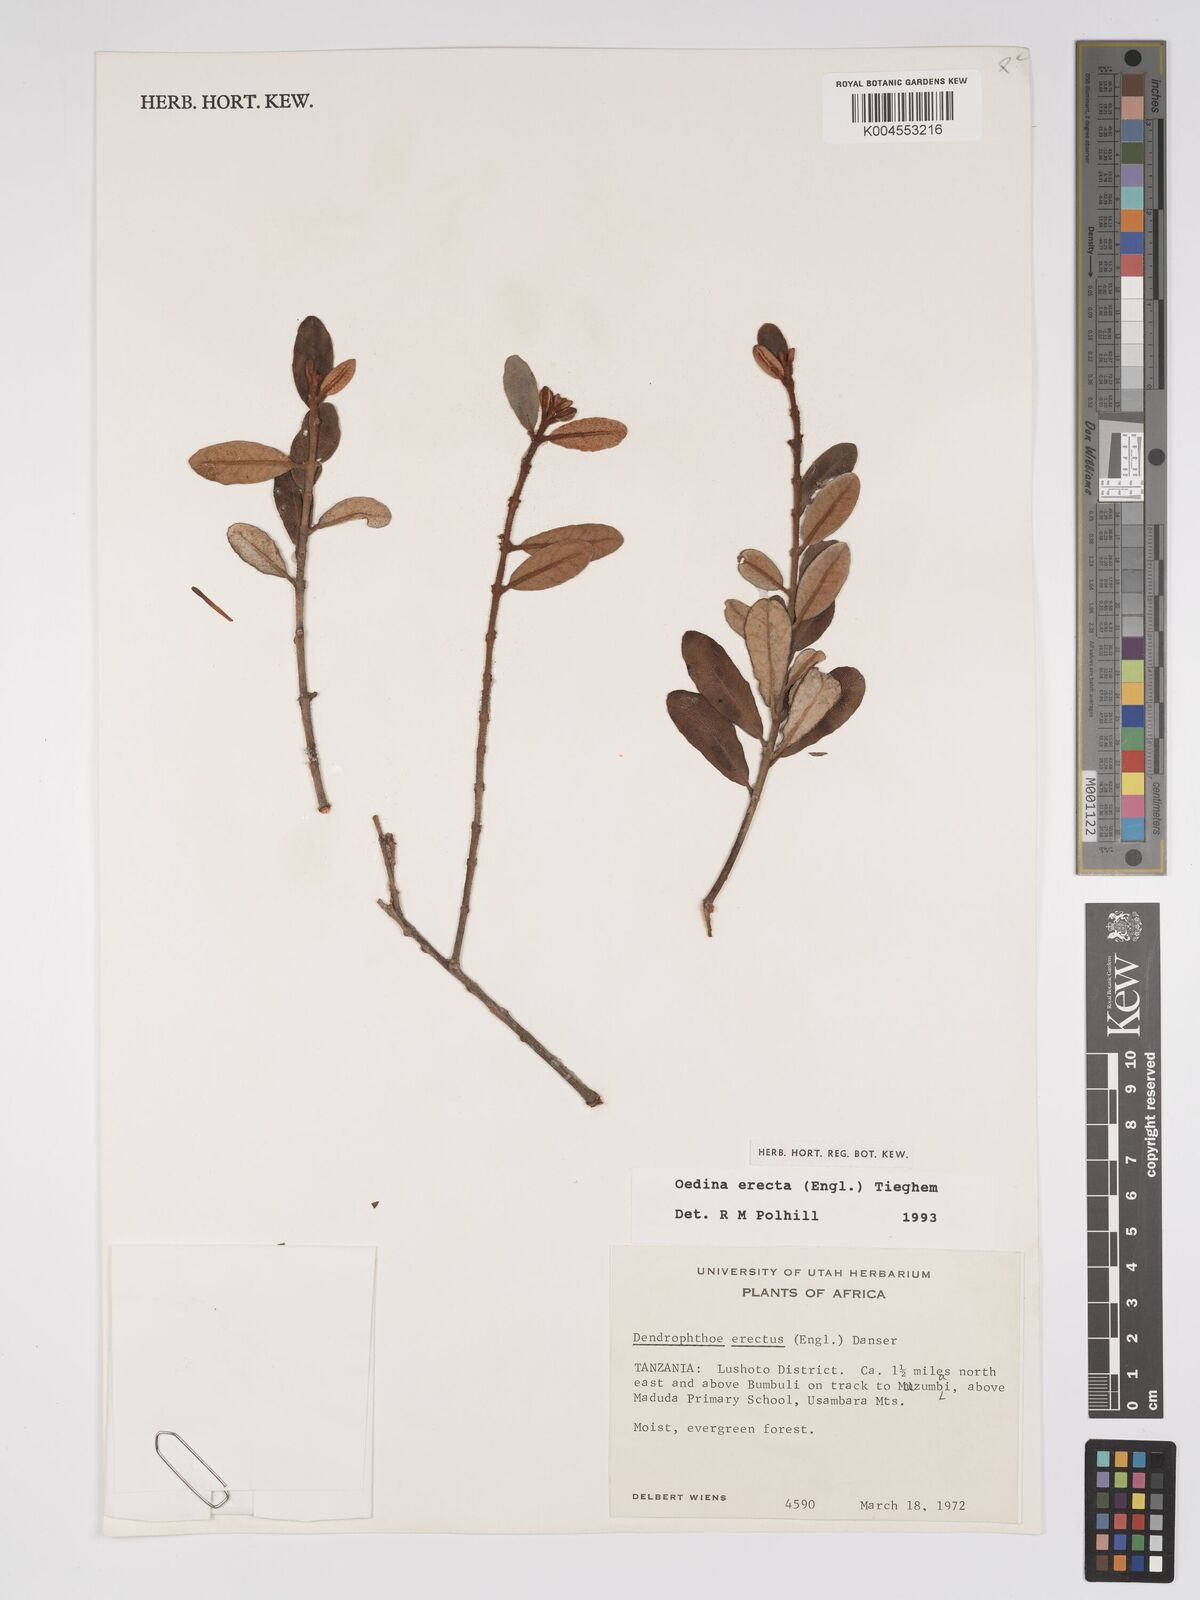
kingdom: Plantae
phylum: Tracheophyta
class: Magnoliopsida
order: Santalales
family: Loranthaceae
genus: Oedina
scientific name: Oedina erecta
